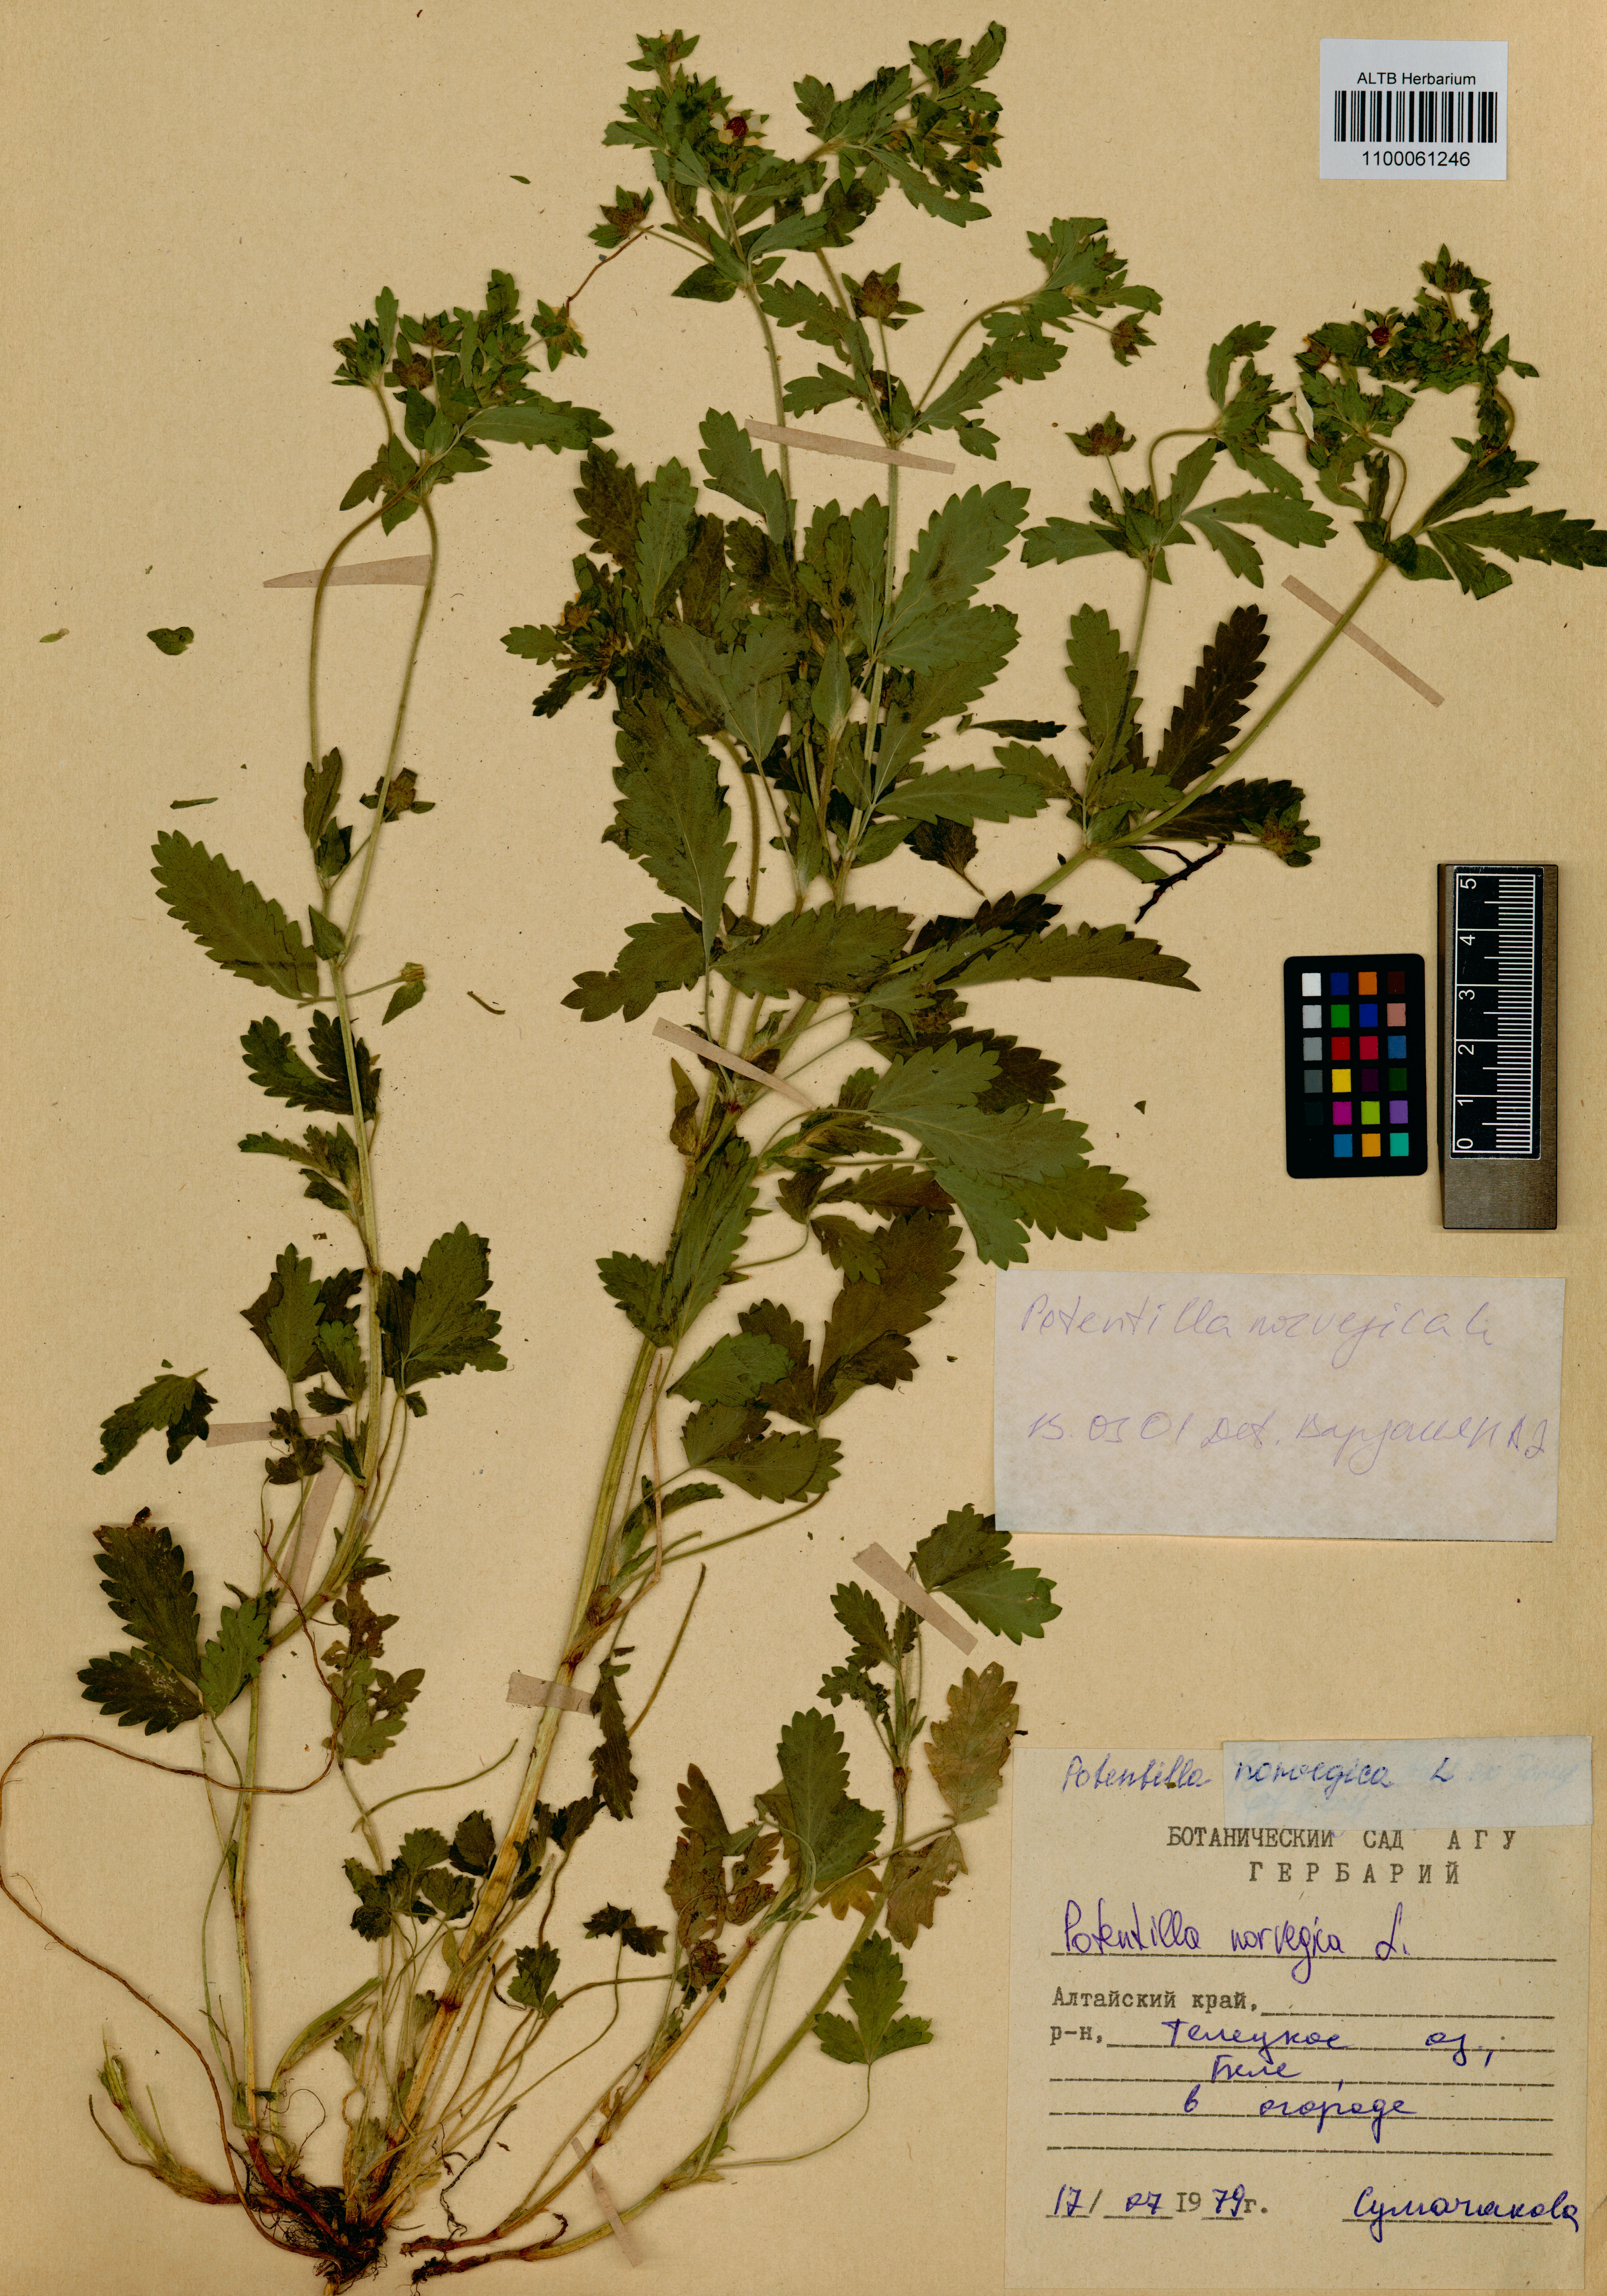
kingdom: Plantae
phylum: Tracheophyta
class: Magnoliopsida
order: Rosales
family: Rosaceae
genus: Potentilla
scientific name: Potentilla norvegica
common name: Ternate-leaved cinquefoil
